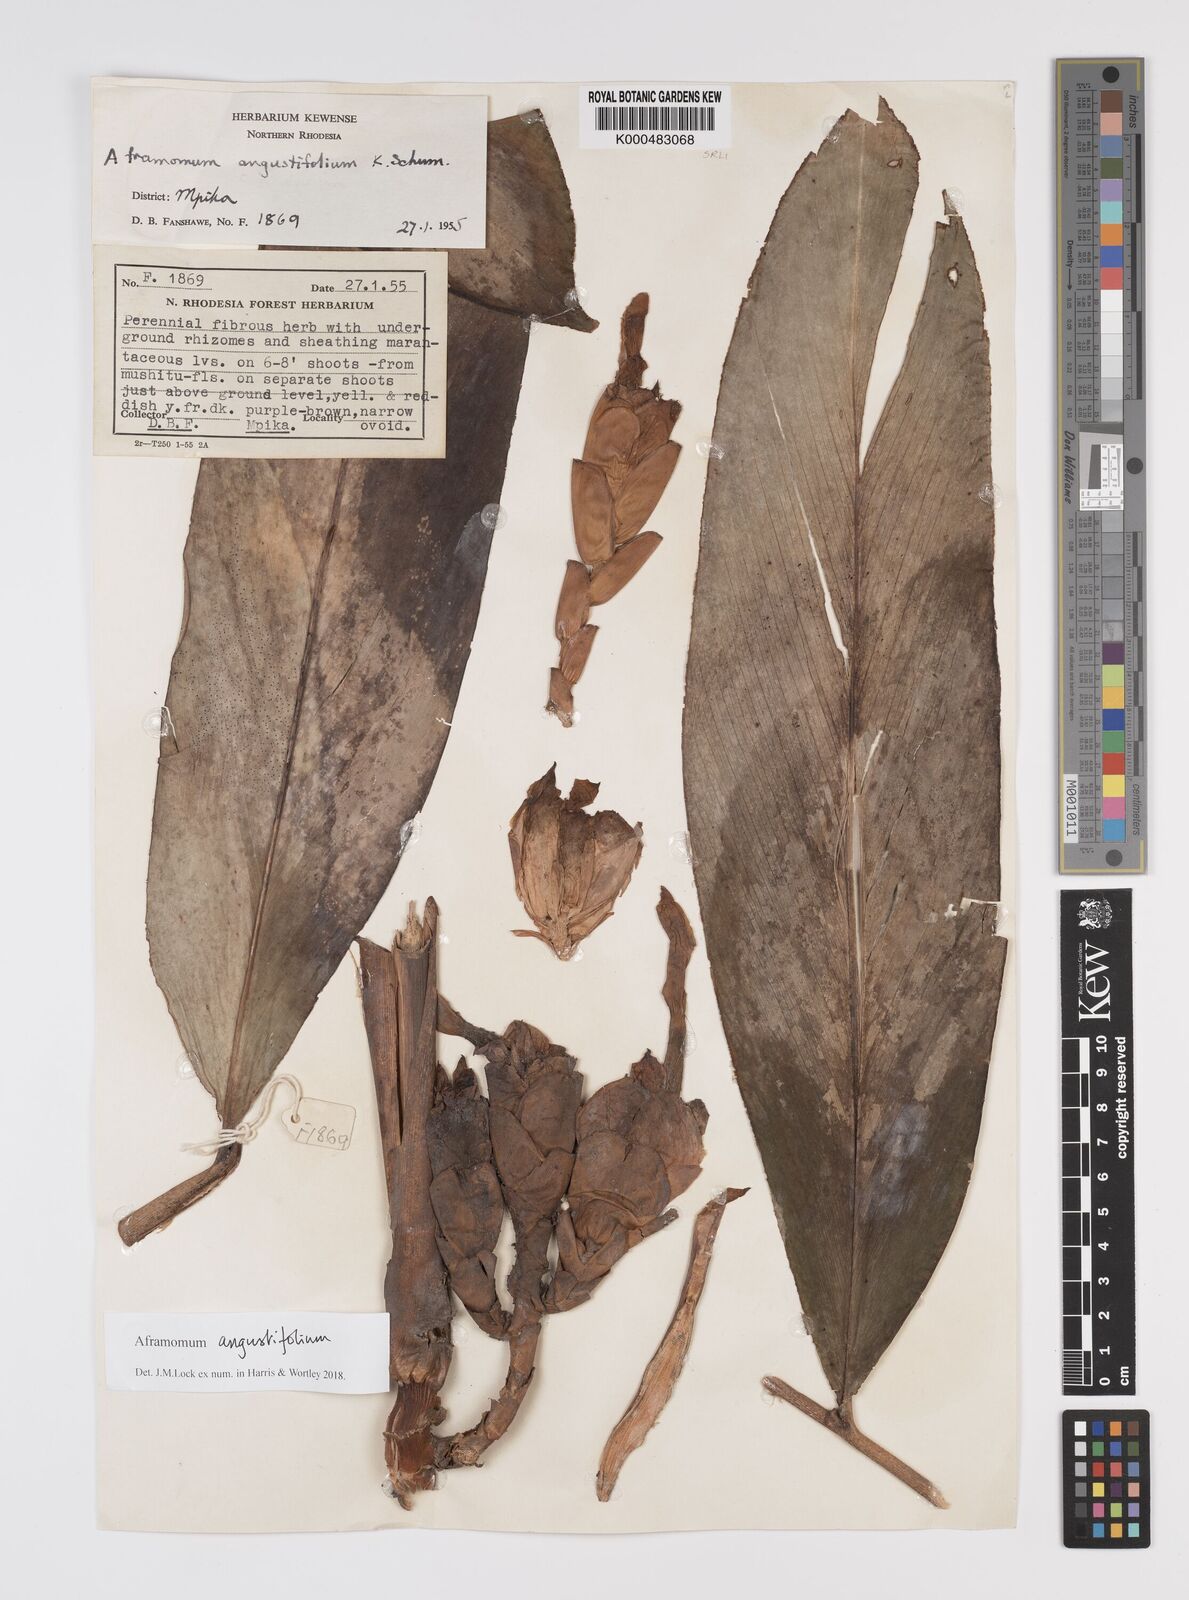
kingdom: Plantae
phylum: Tracheophyta
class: Liliopsida
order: Zingiberales
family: Zingiberaceae
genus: Aframomum
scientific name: Aframomum angustifolium
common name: Guinea grains
